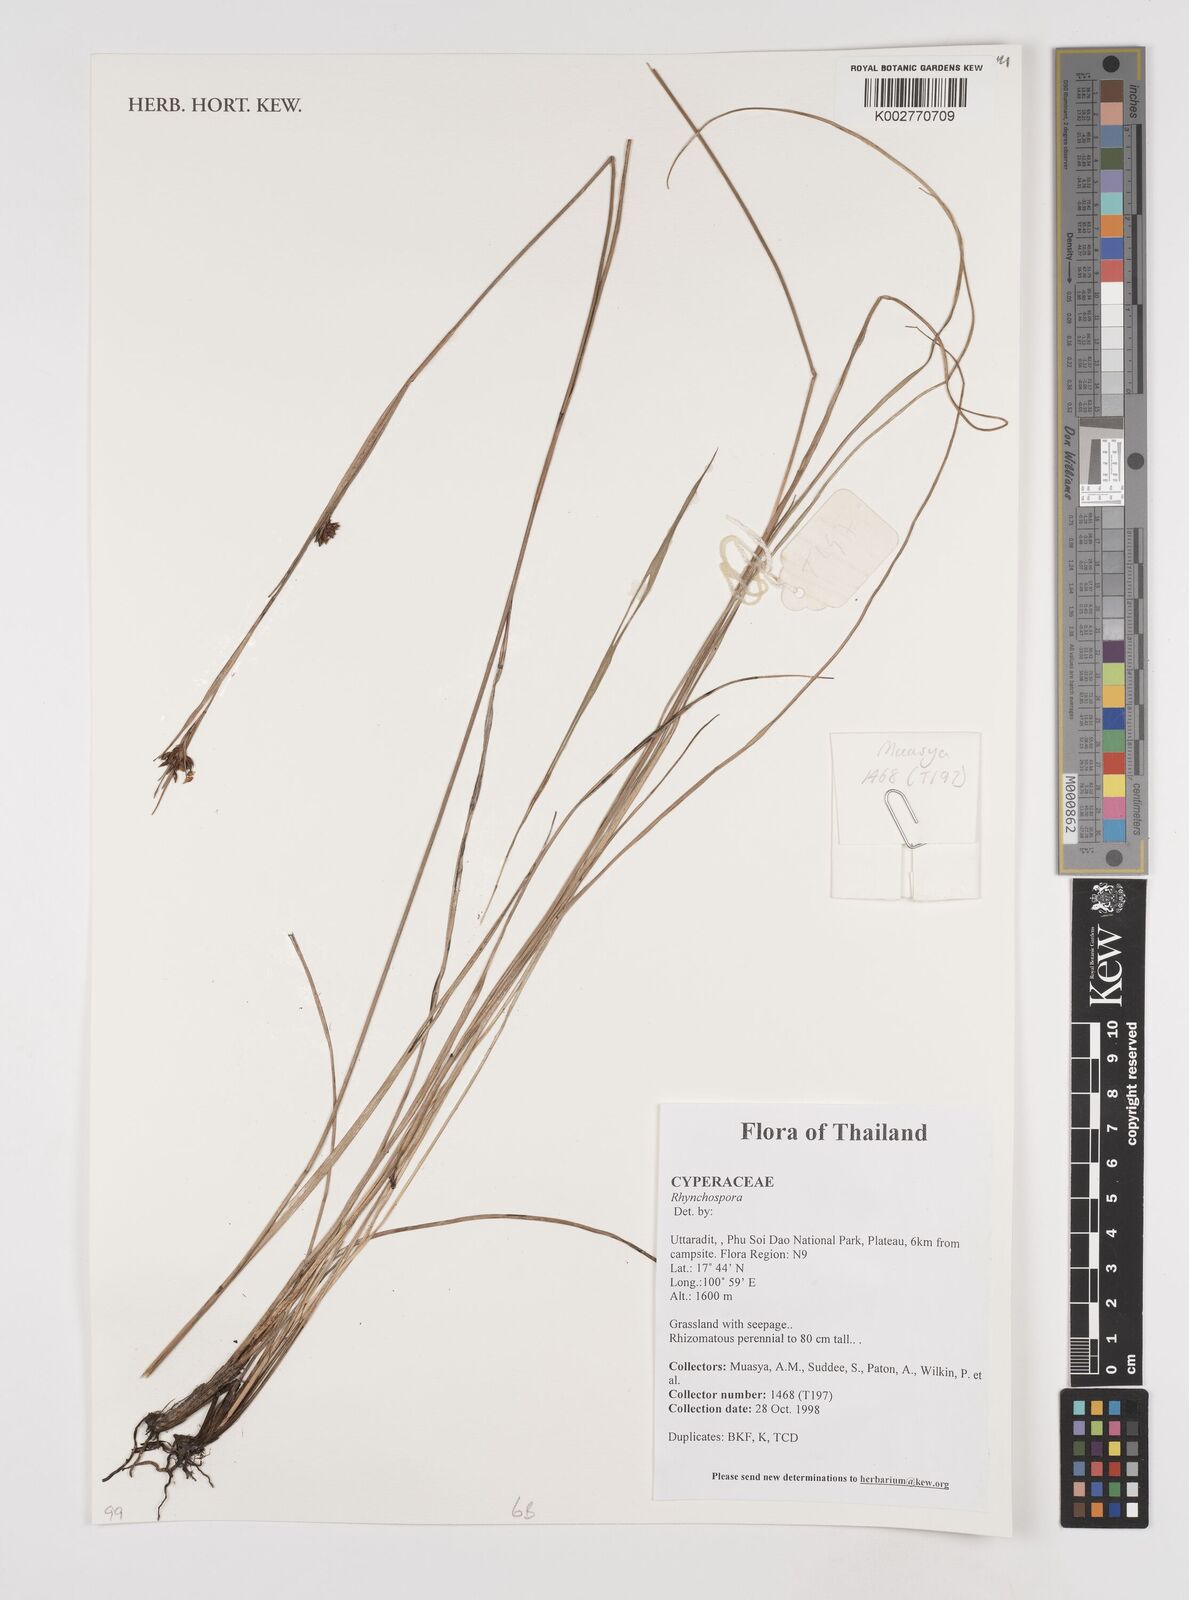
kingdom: Plantae
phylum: Tracheophyta
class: Liliopsida
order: Poales
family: Cyperaceae
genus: Rhynchospora
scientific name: Rhynchospora
